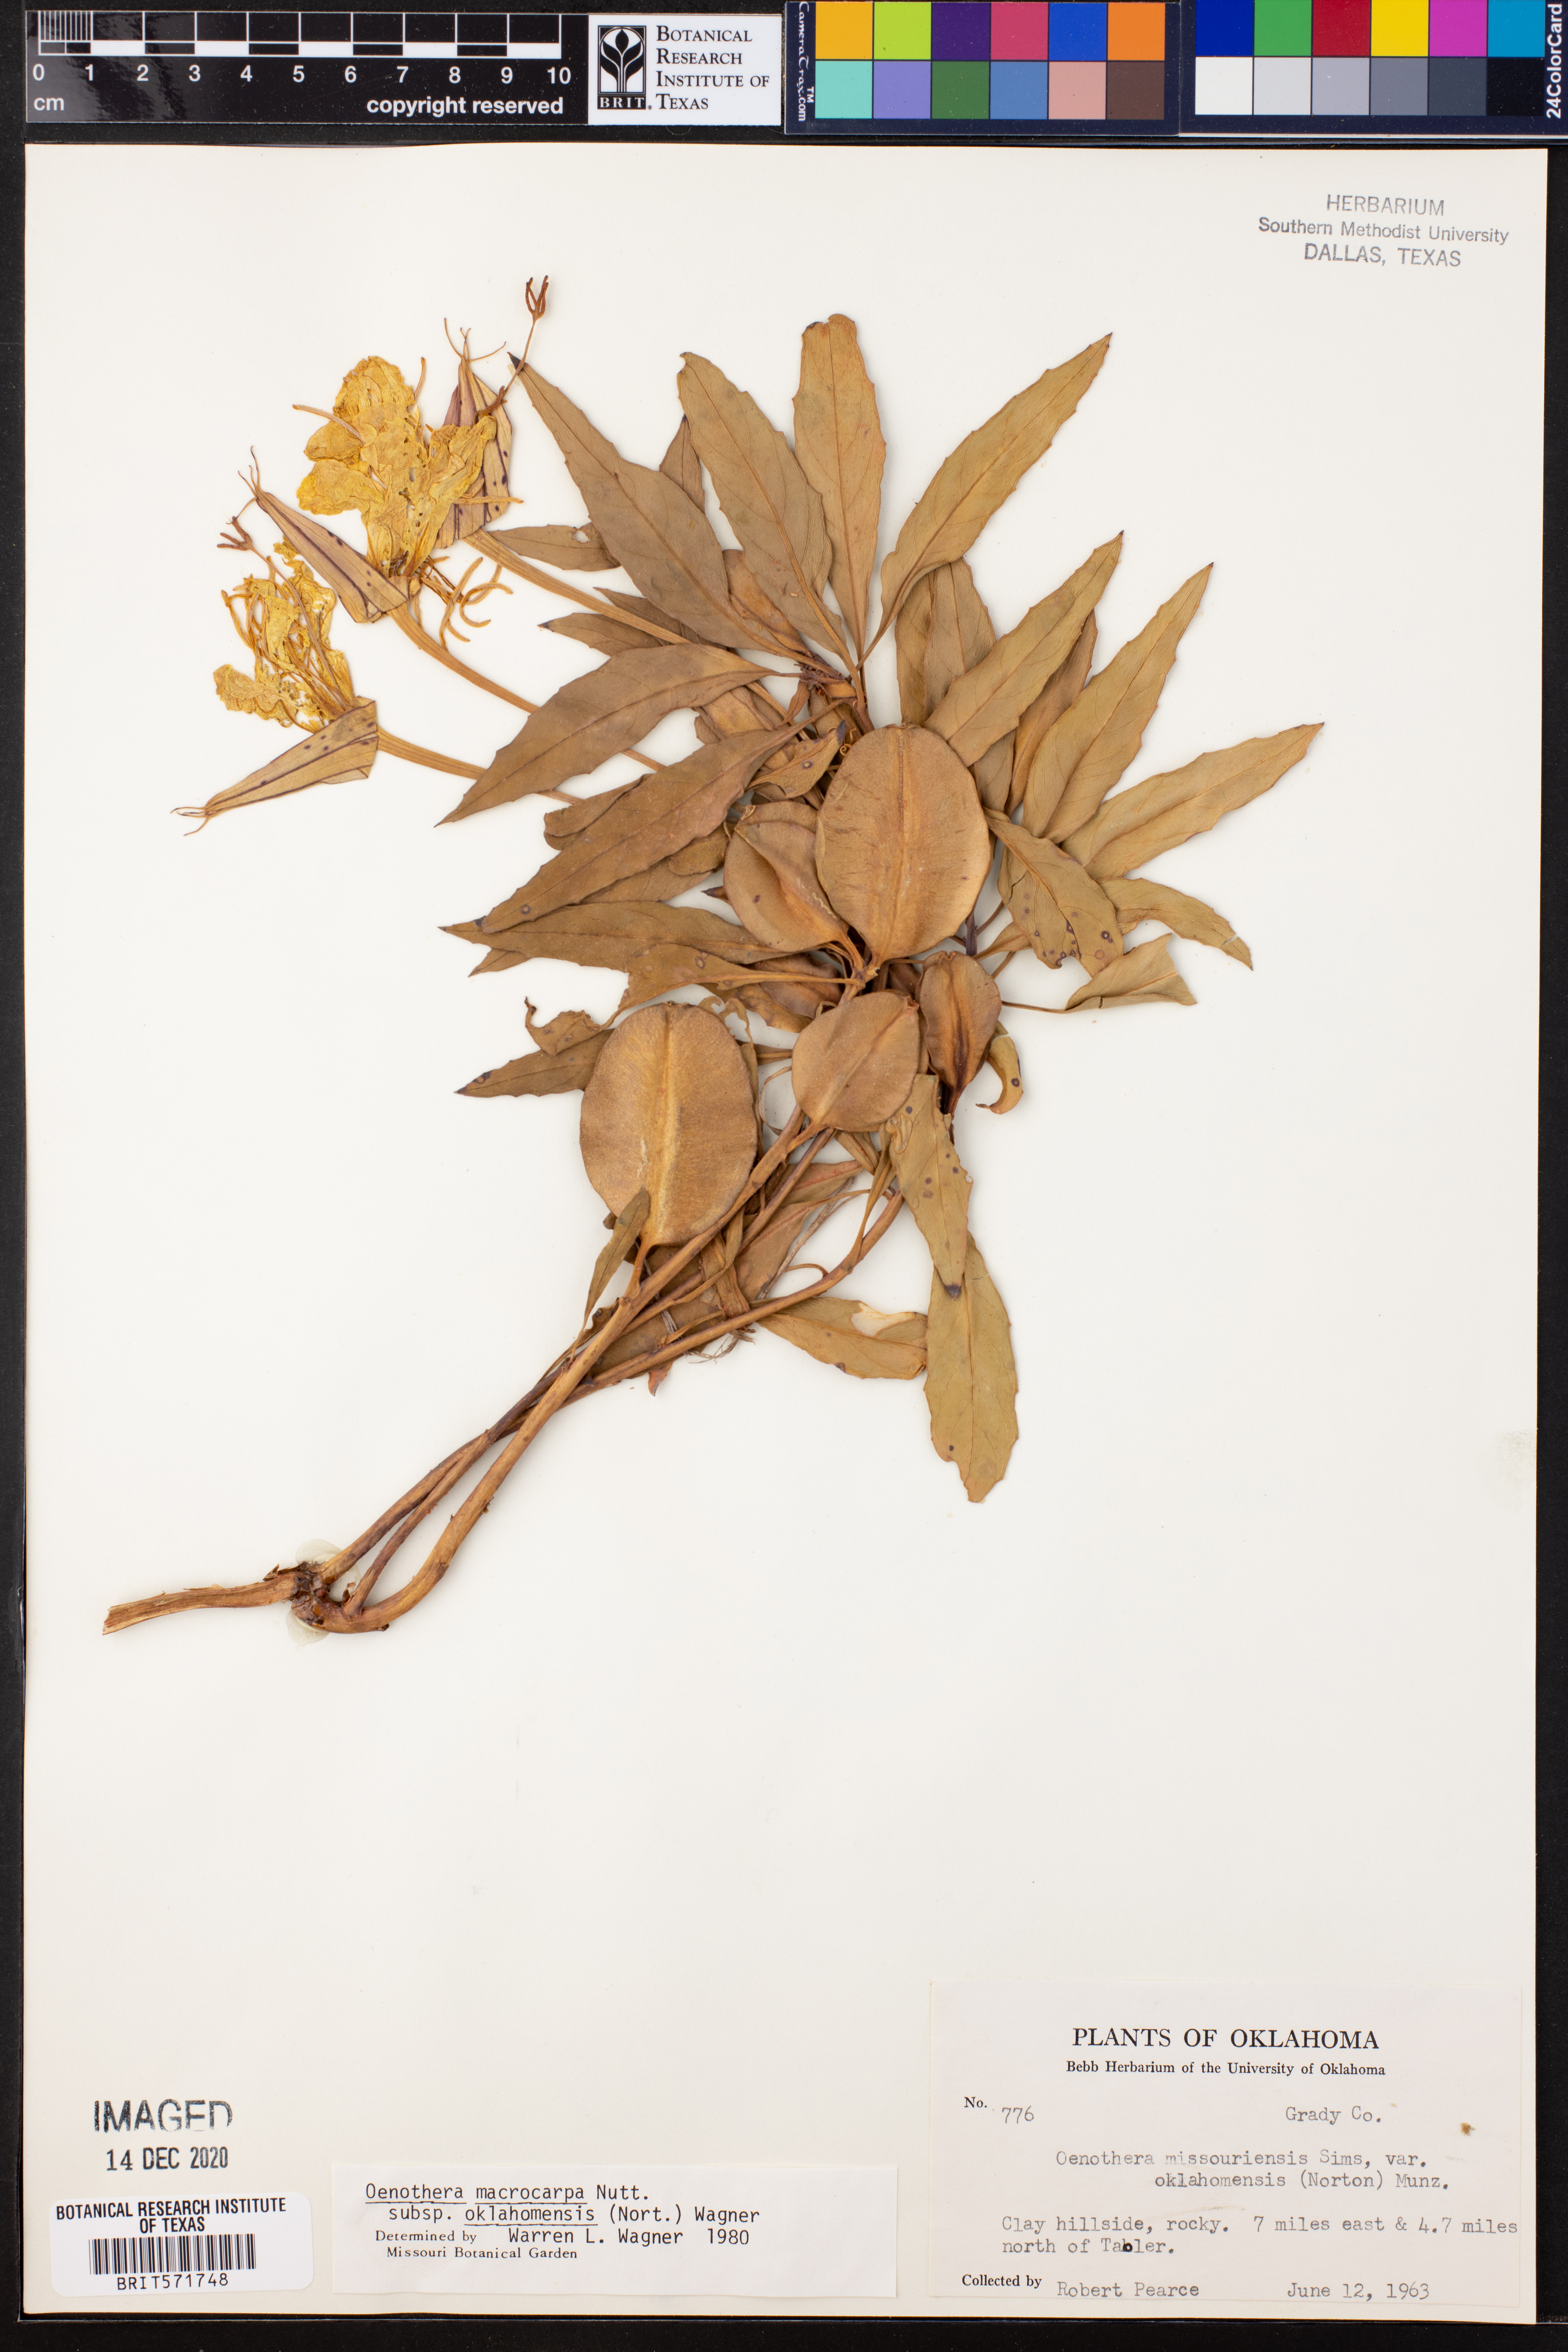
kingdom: Plantae
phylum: Tracheophyta
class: Magnoliopsida
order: Myrtales
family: Onagraceae
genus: Oenothera
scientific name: Oenothera macrocarpa
